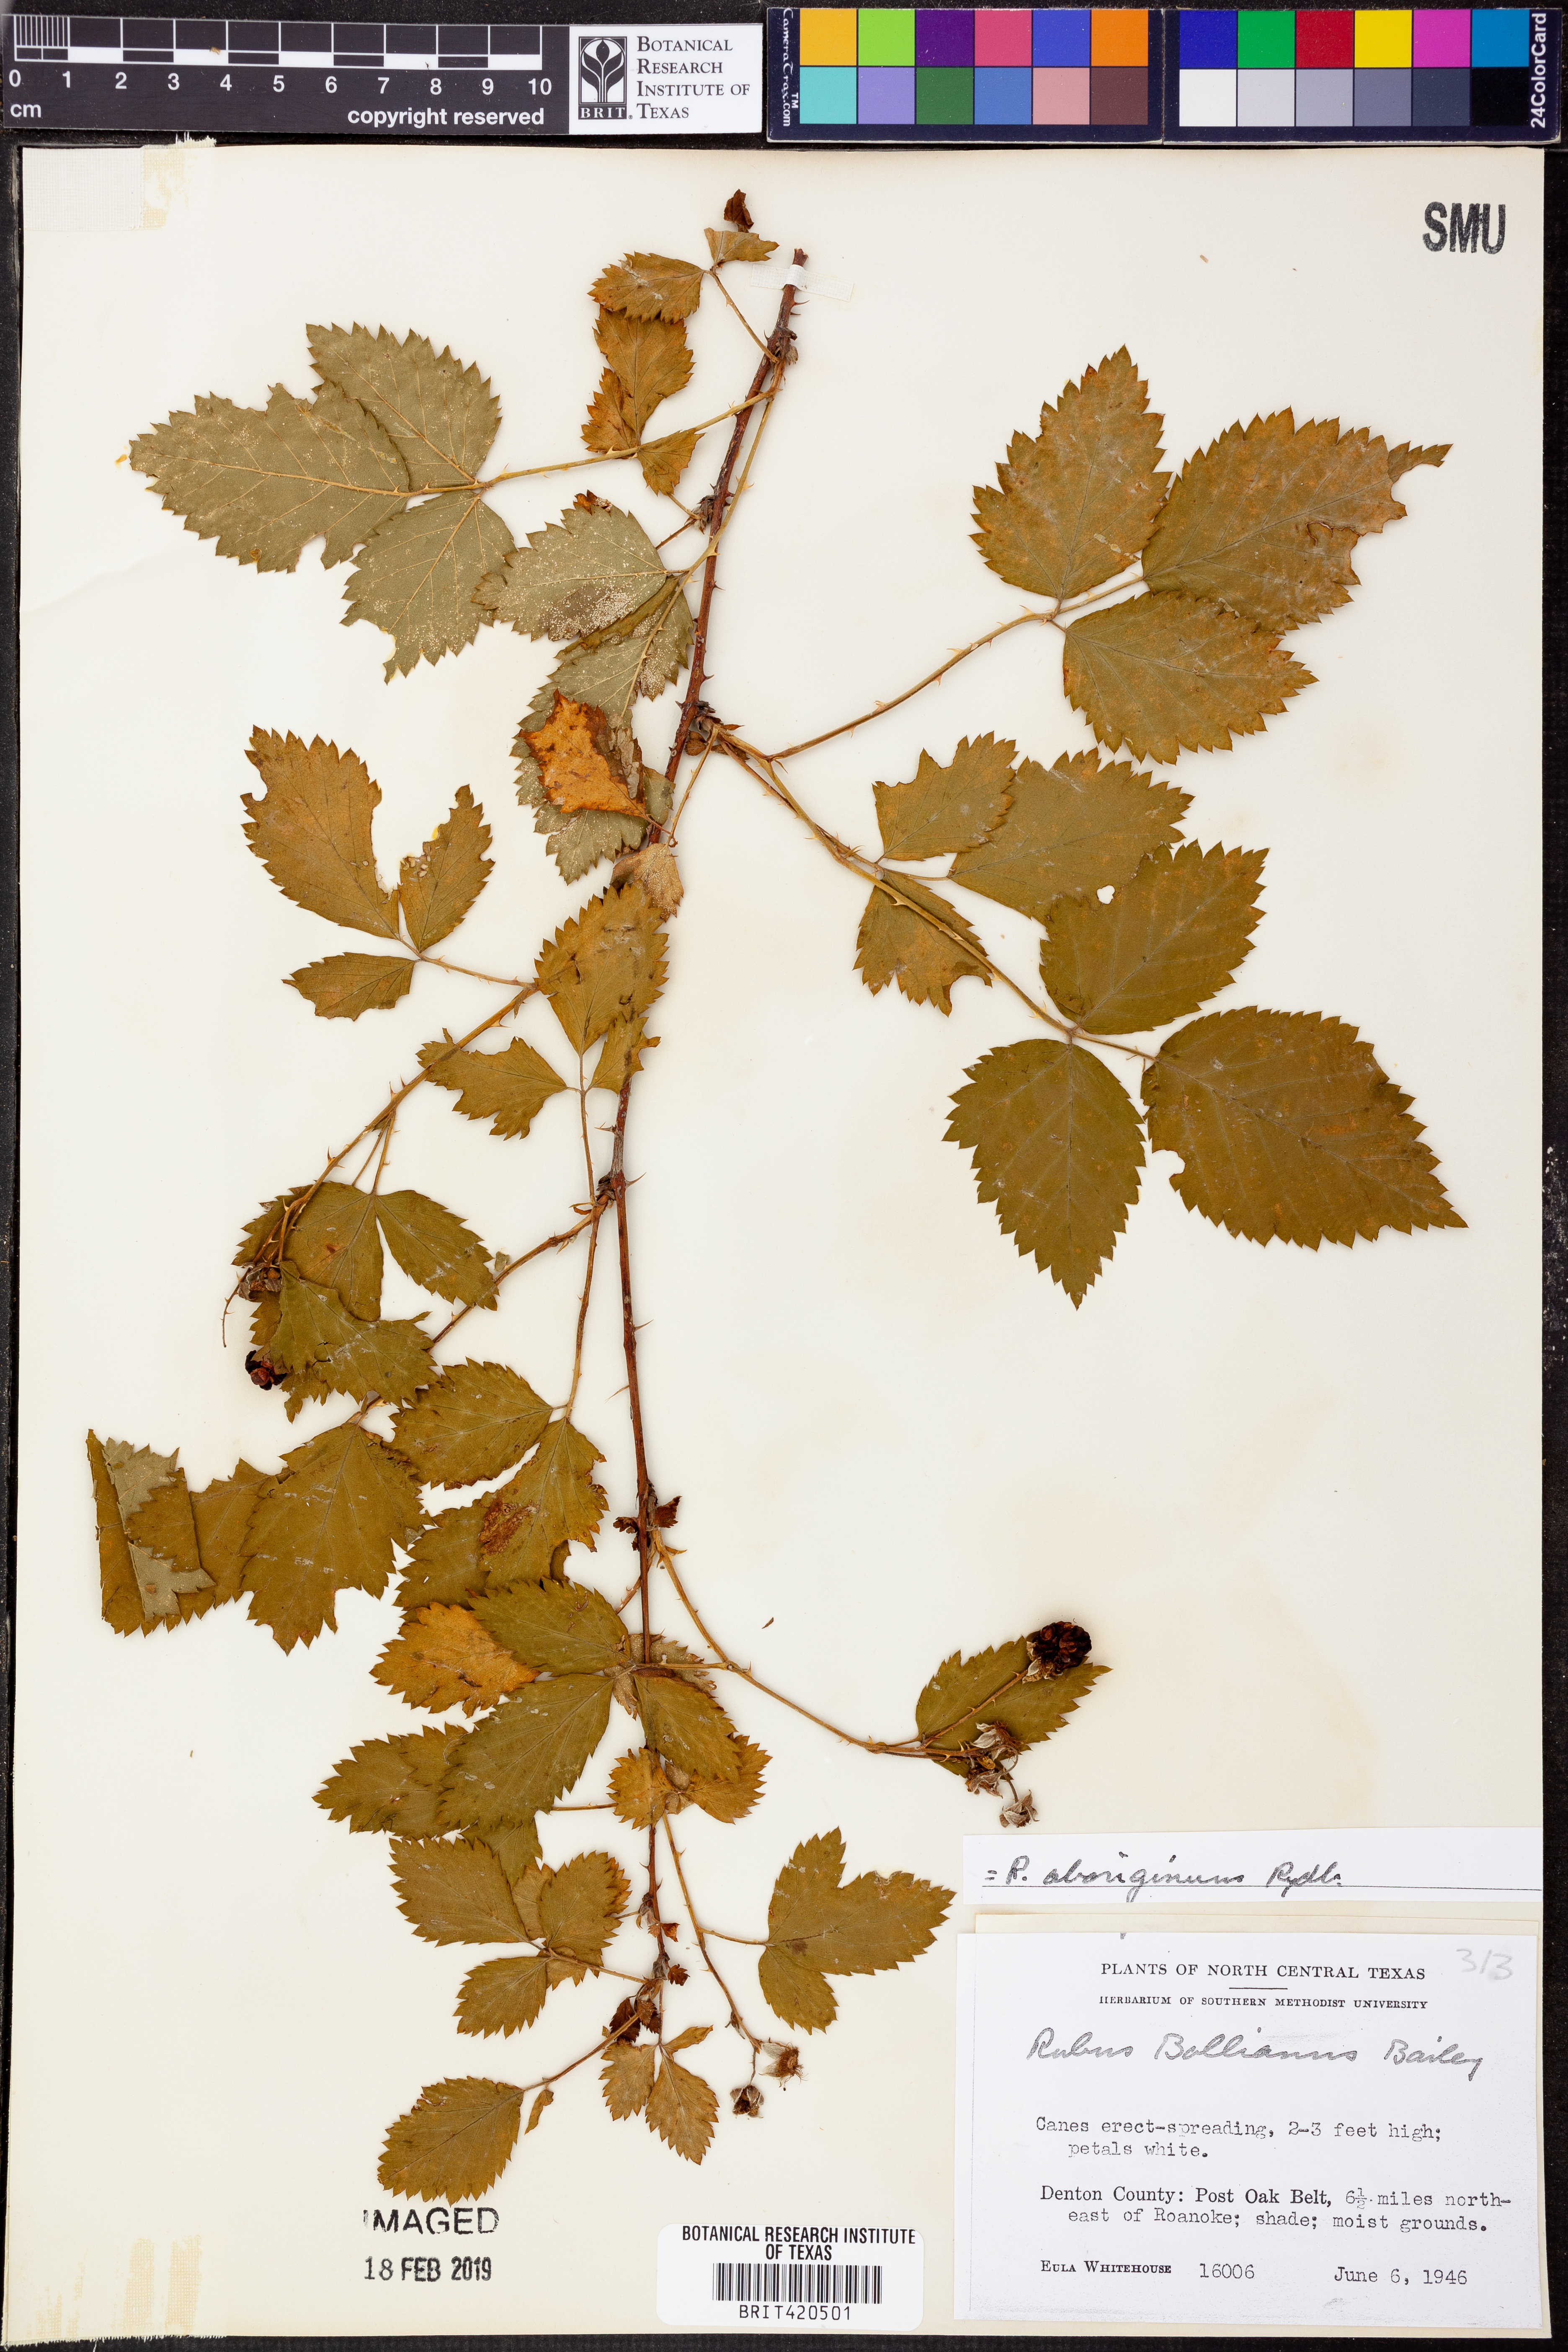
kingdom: Plantae
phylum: Tracheophyta
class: Magnoliopsida
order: Rosales
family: Rosaceae
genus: Rubus
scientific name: Rubus aboriginum
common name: Mayes dewberry
